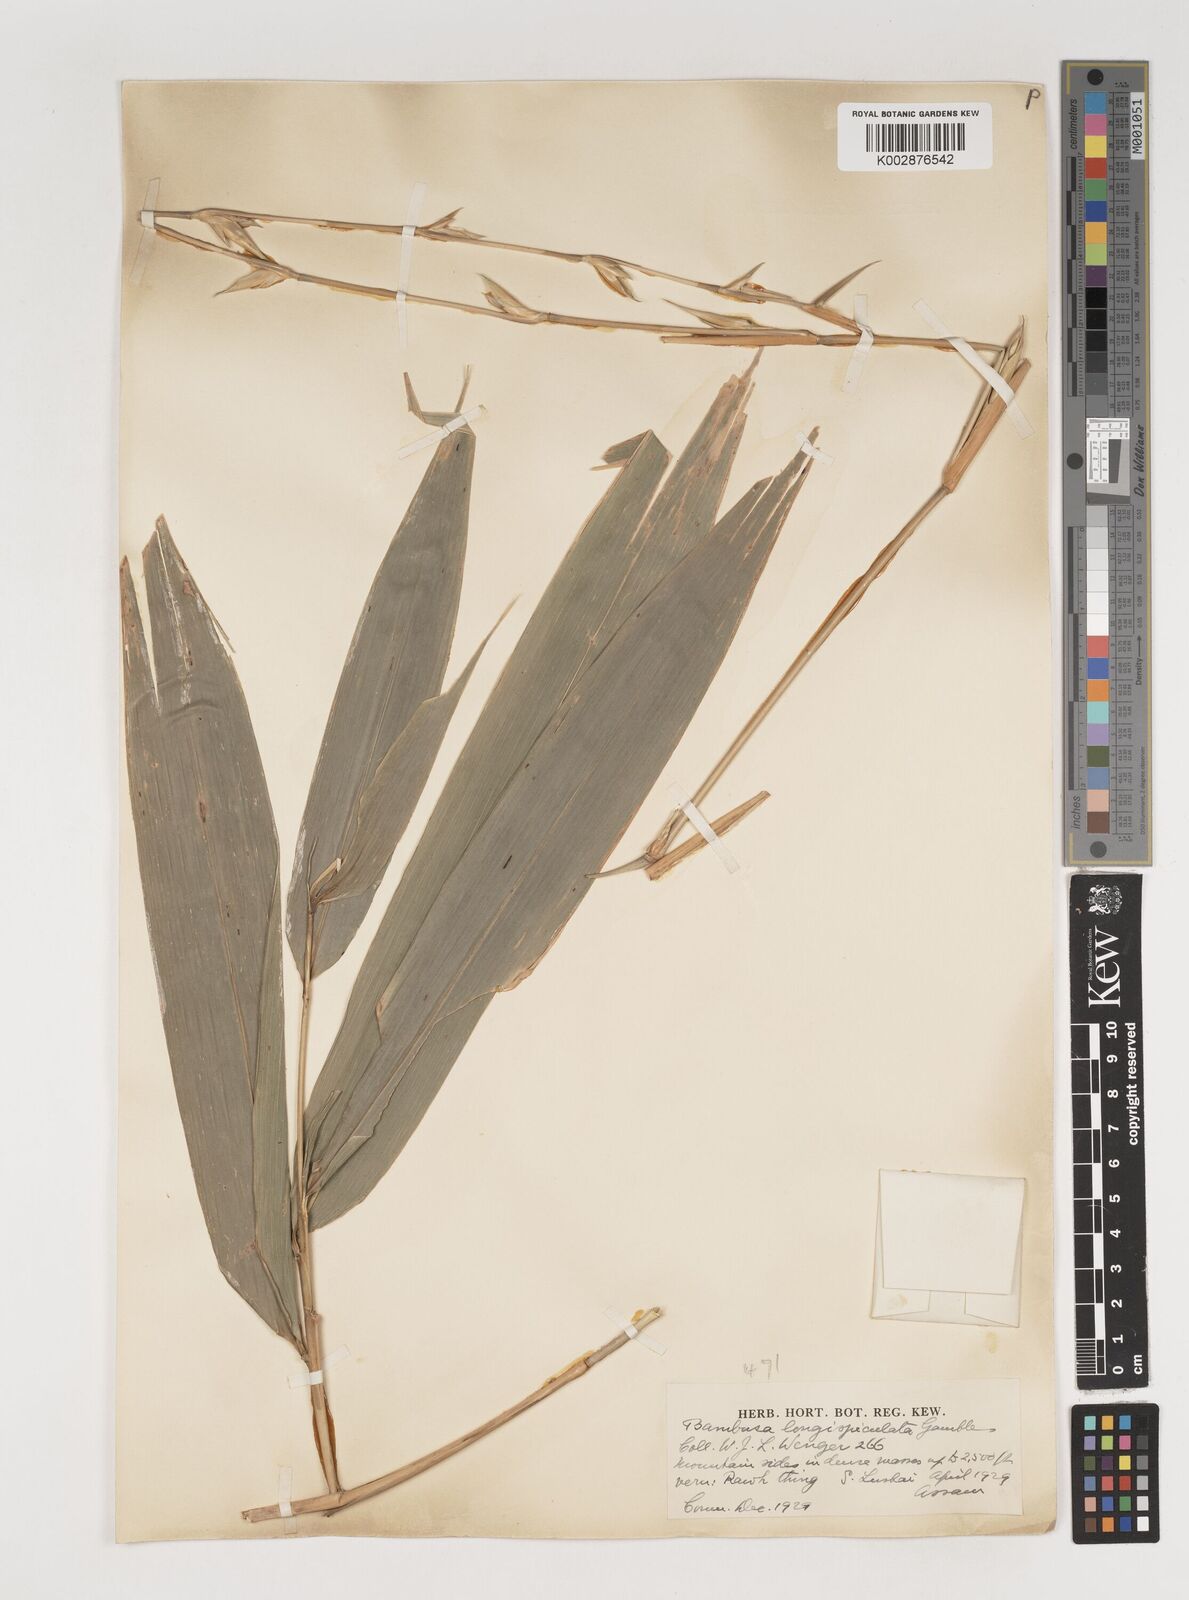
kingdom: Plantae
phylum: Tracheophyta
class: Liliopsida
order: Poales
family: Poaceae
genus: Bambusa
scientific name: Bambusa longispiculata
